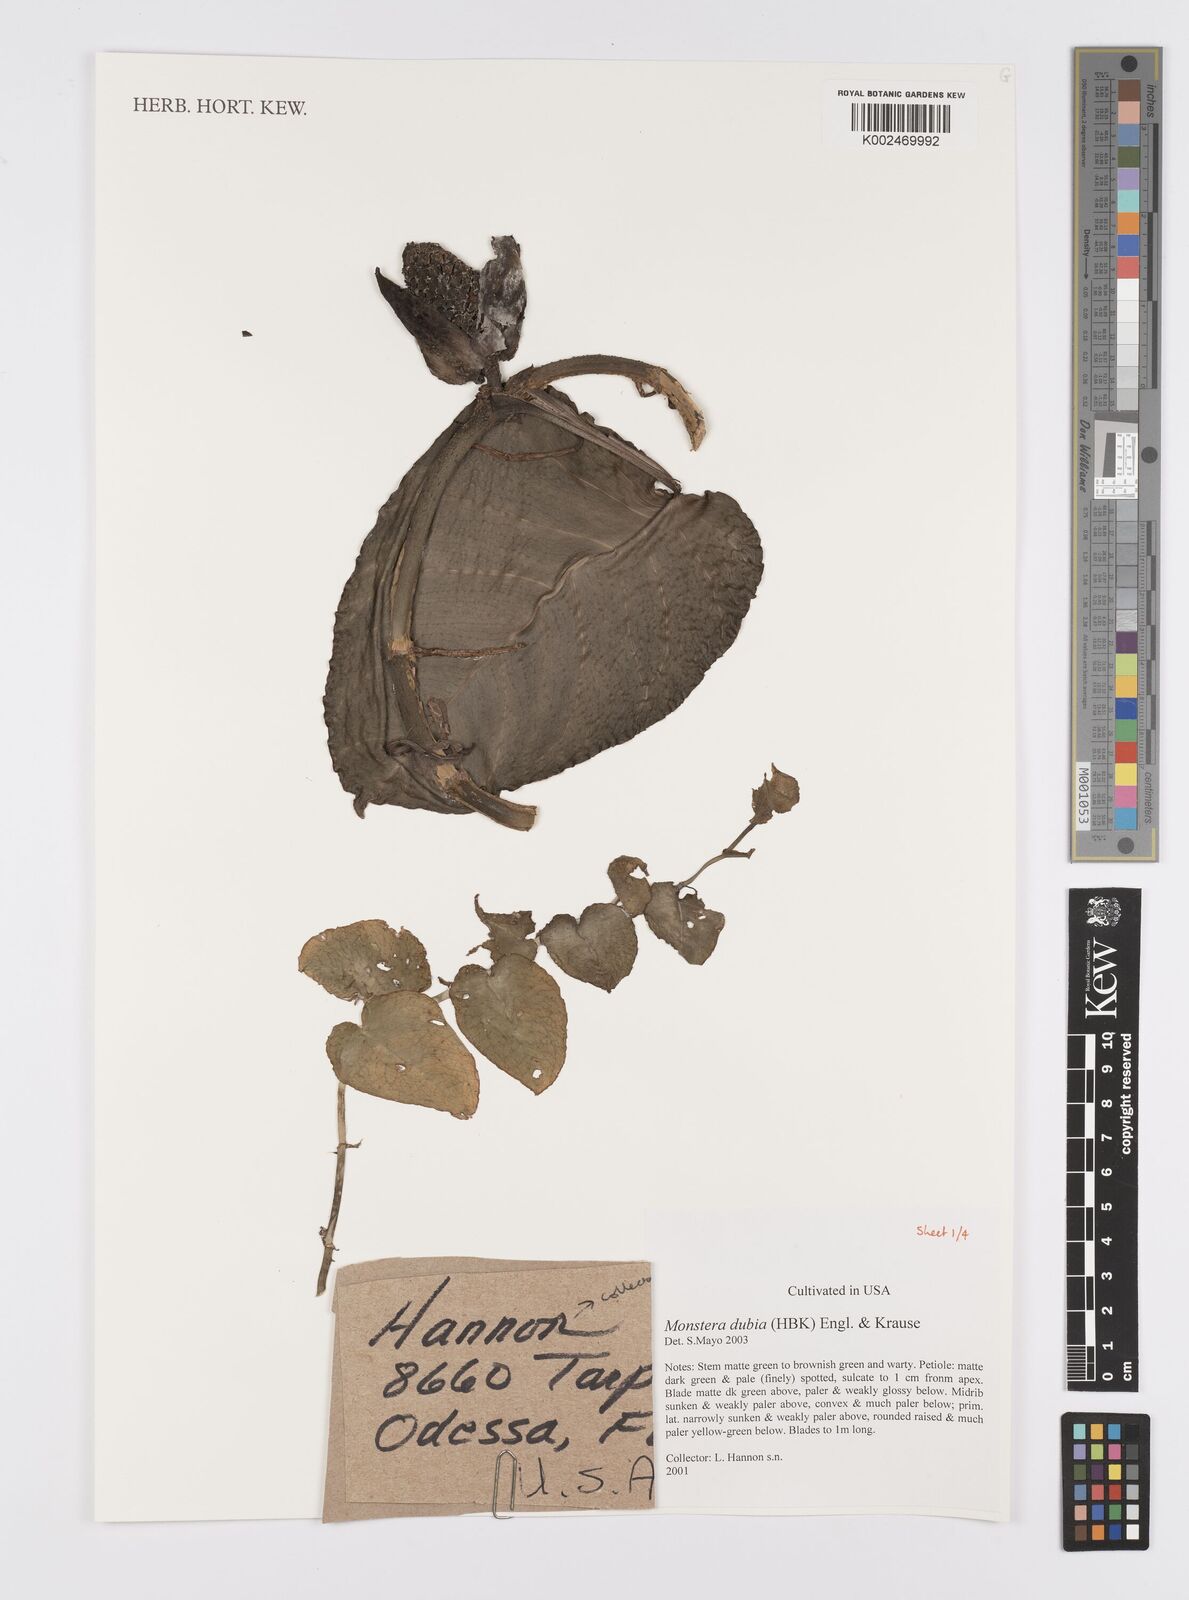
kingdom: Plantae
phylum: Tracheophyta
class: Liliopsida
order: Alismatales
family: Araceae
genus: Monstera
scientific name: Monstera dubia
